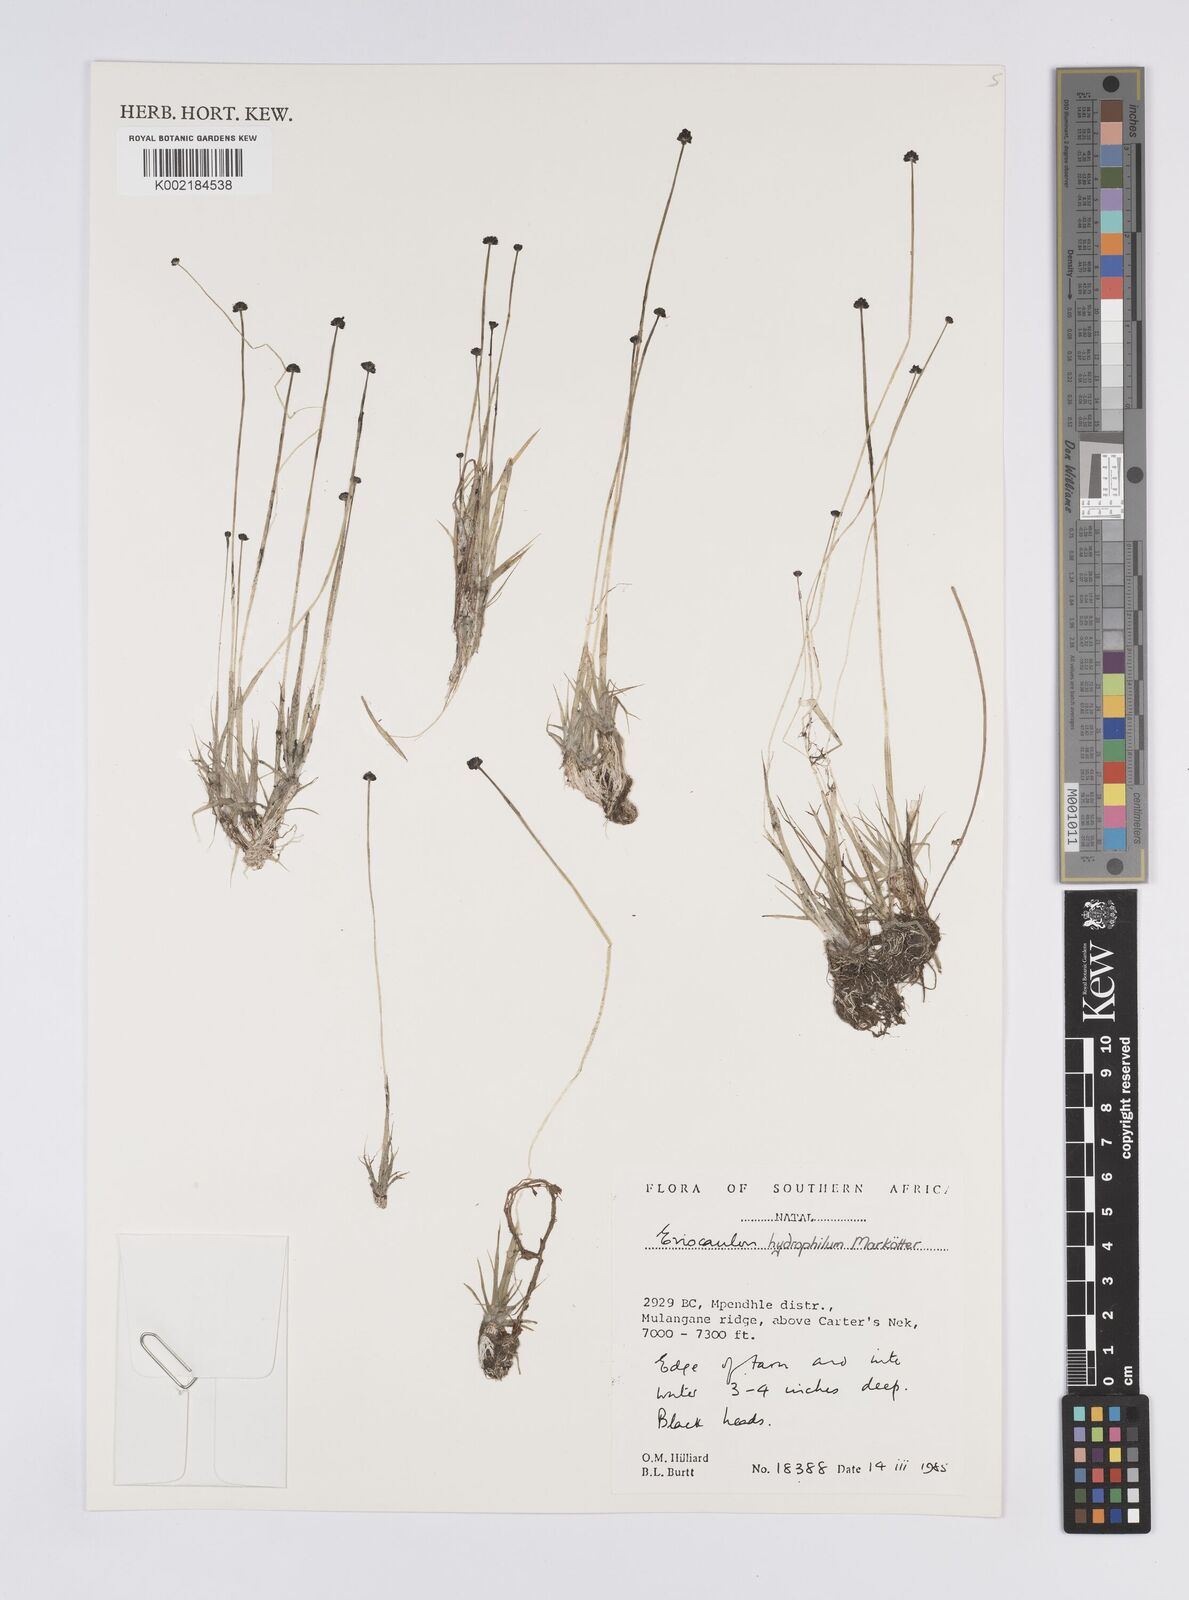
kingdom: Plantae
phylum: Tracheophyta
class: Liliopsida
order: Poales
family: Eriocaulaceae
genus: Eriocaulon
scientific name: Eriocaulon hydrophilum
